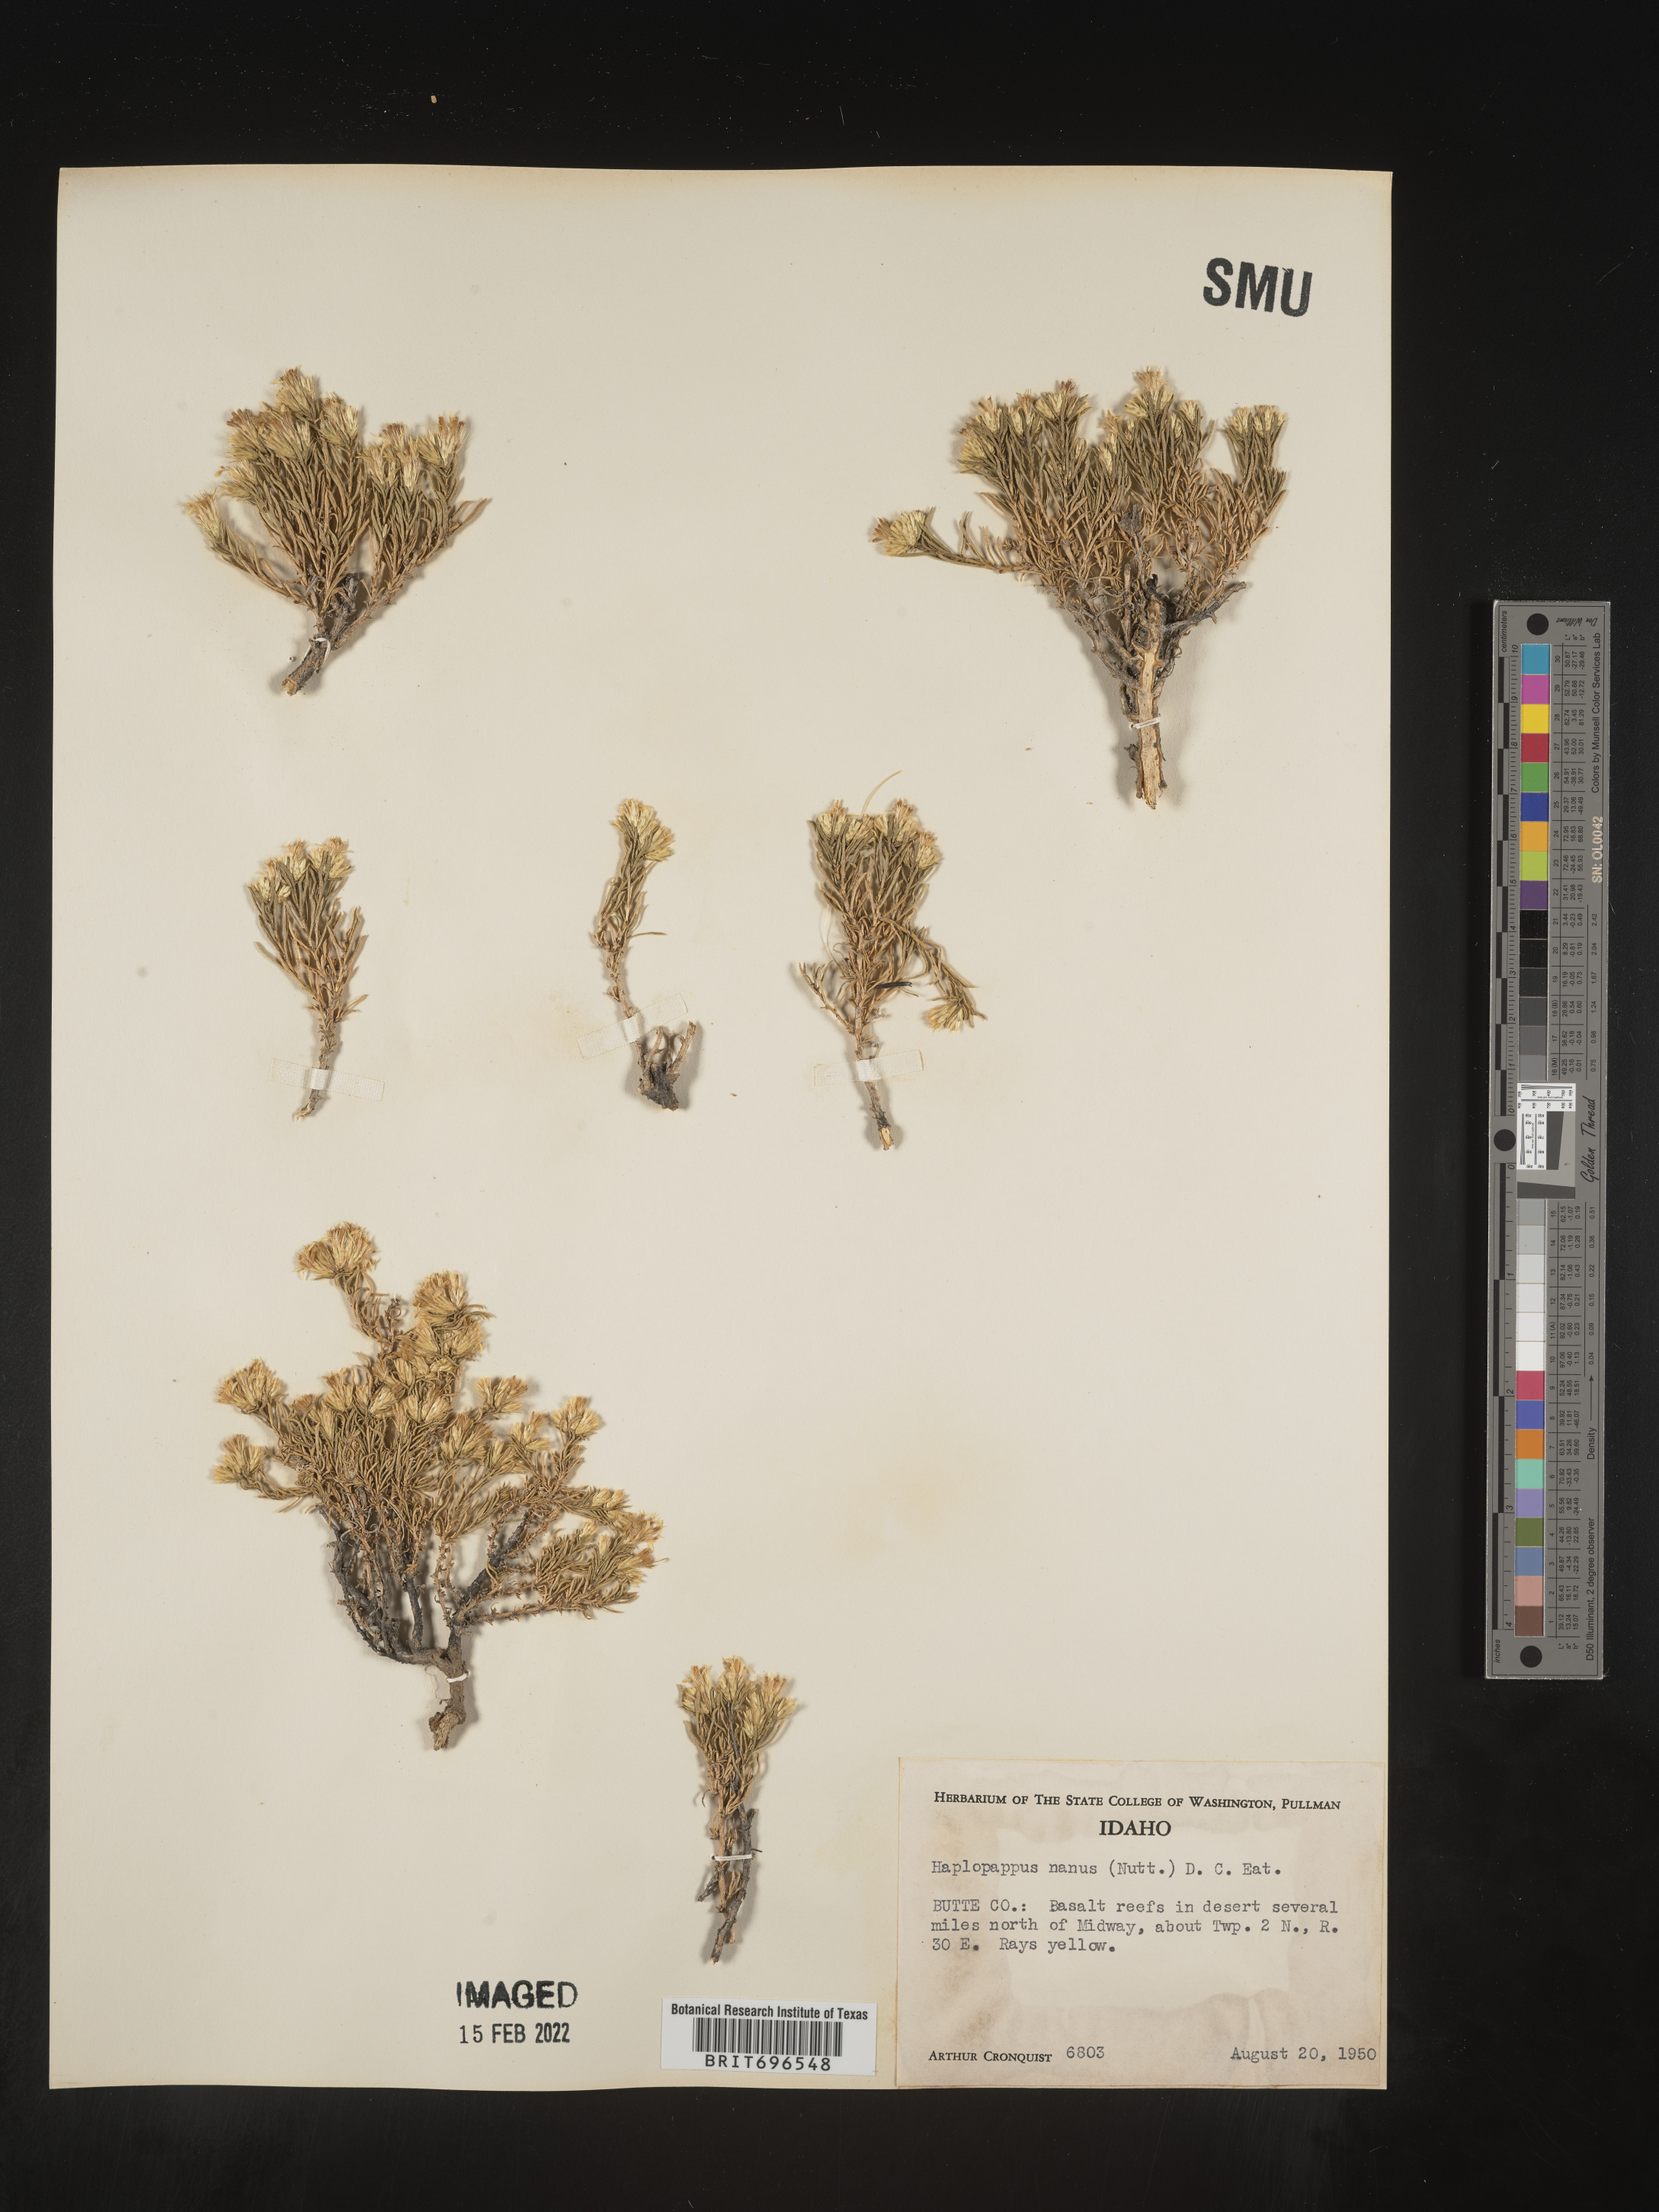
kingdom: Plantae
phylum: Tracheophyta
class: Magnoliopsida
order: Asterales
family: Asteraceae
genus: Ericameria
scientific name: Ericameria nana
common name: Dwarf goldenbush
